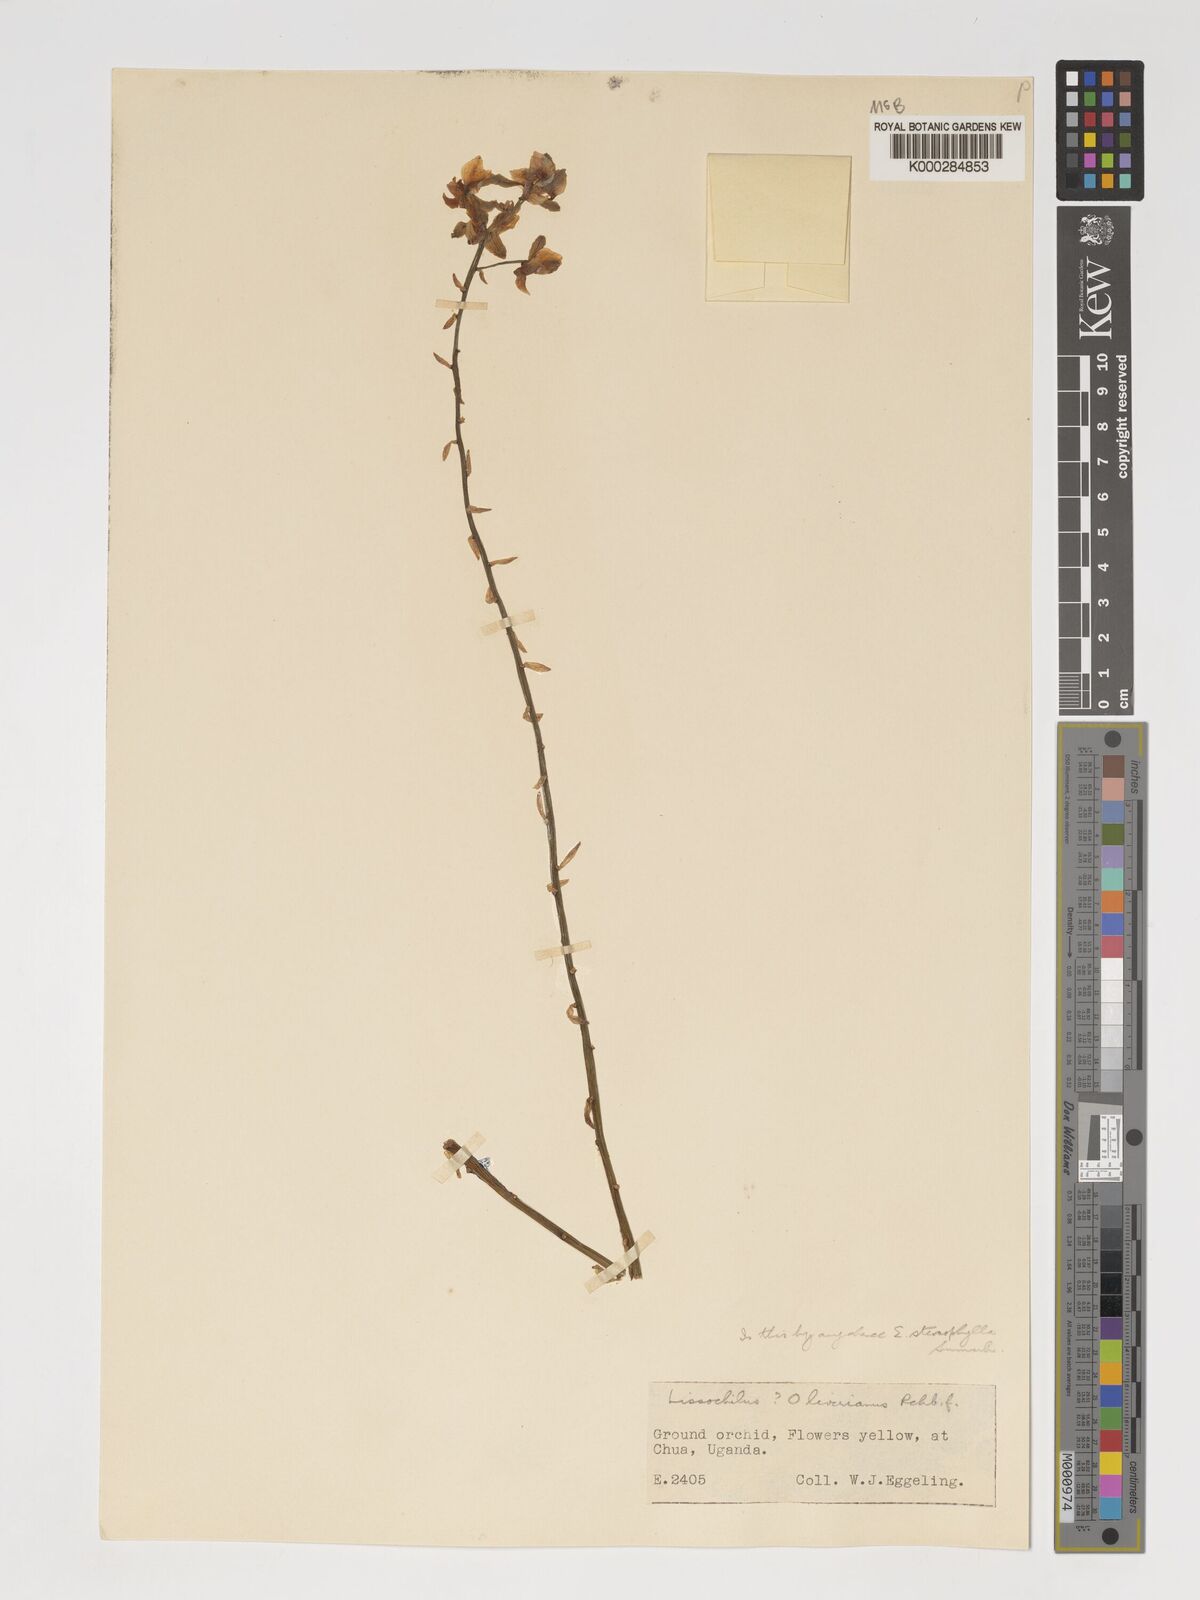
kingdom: Plantae
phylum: Tracheophyta
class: Liliopsida
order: Asparagales
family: Orchidaceae
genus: Eulophia
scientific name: Eulophia streptopetala
